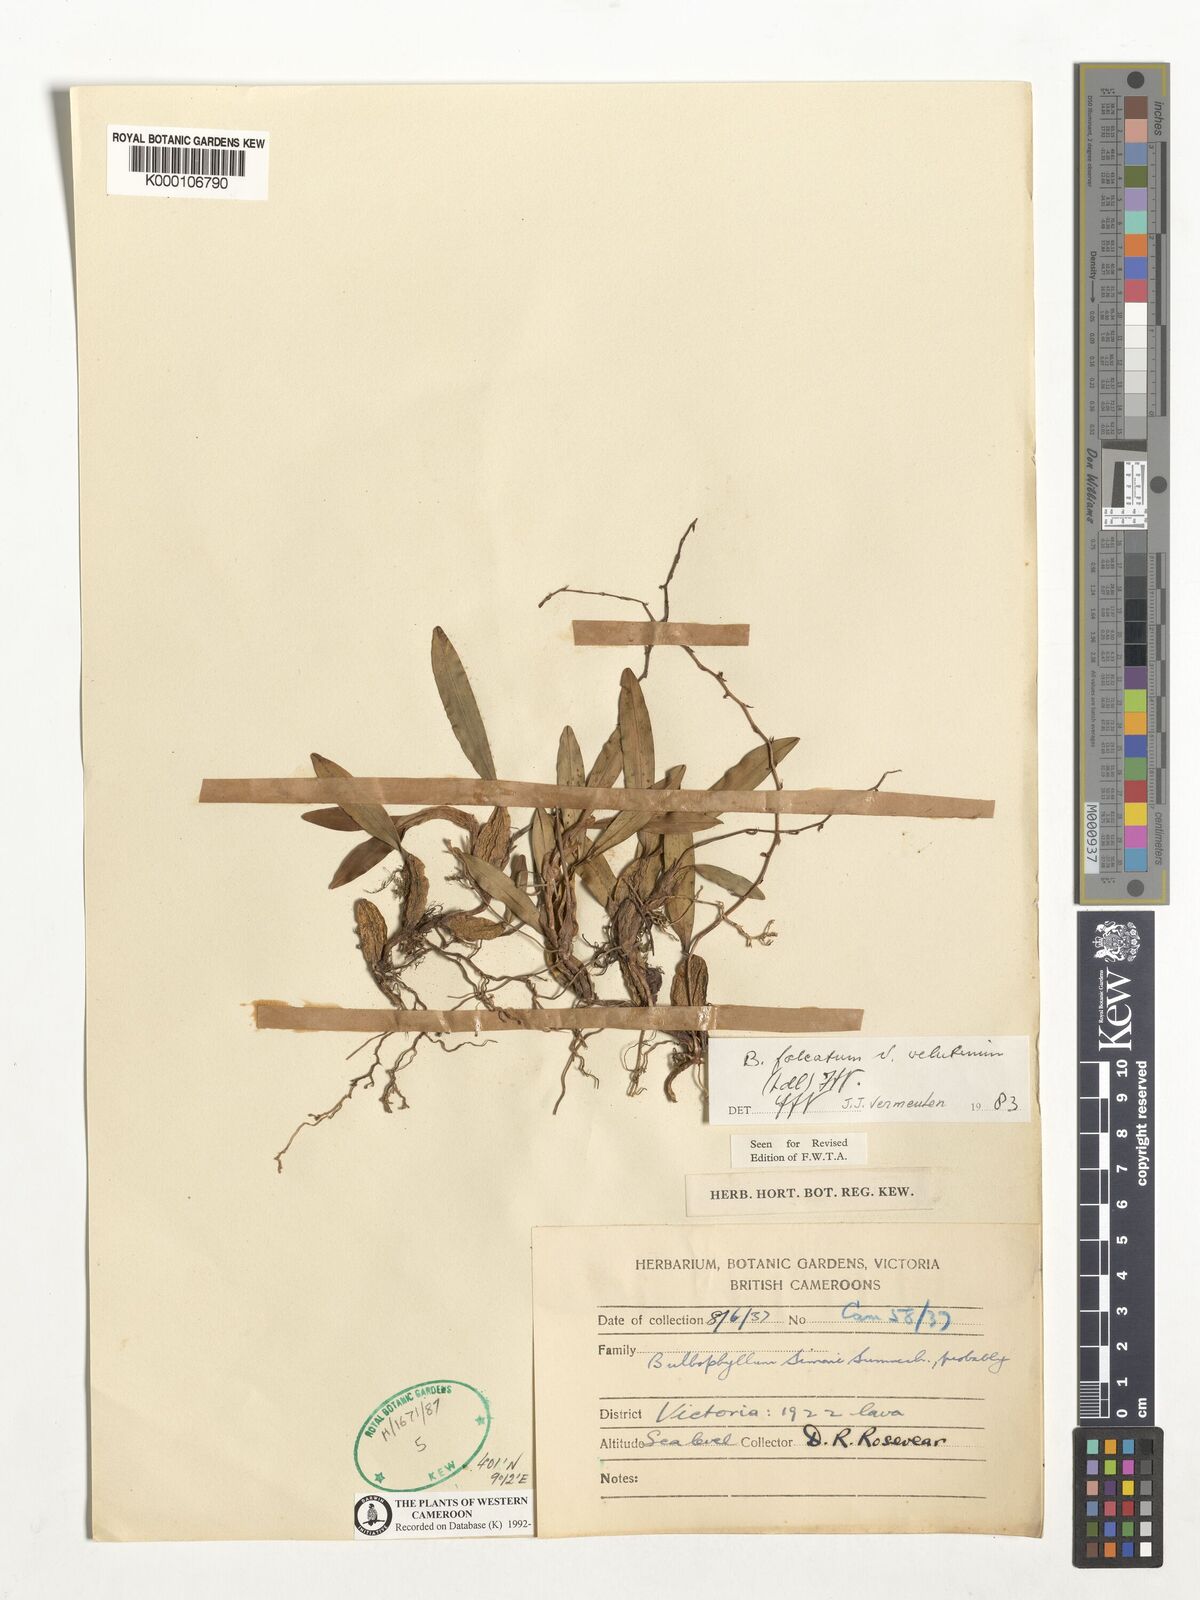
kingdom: Plantae
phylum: Tracheophyta
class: Liliopsida
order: Asparagales
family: Orchidaceae
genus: Bulbophyllum
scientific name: Bulbophyllum falcatum
